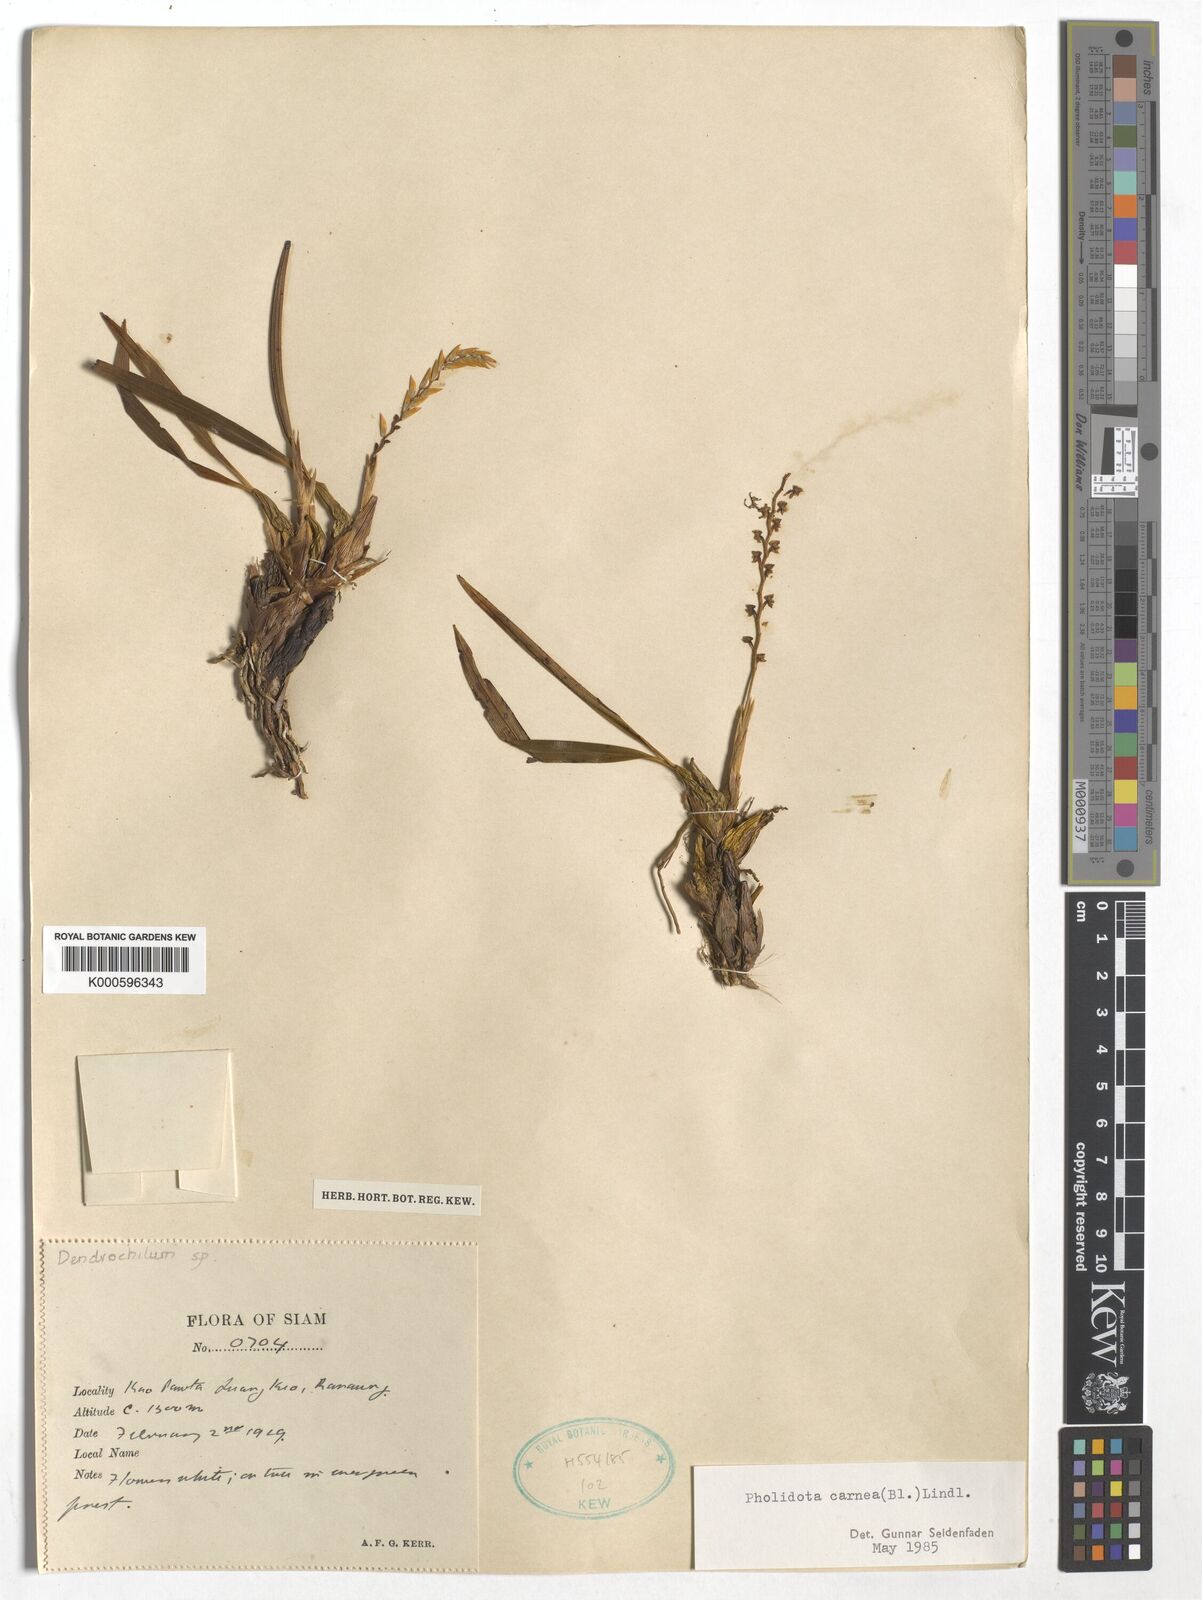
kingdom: Plantae
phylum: Tracheophyta
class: Liliopsida
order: Asparagales
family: Orchidaceae
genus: Coelogyne
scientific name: Coelogyne carnea
